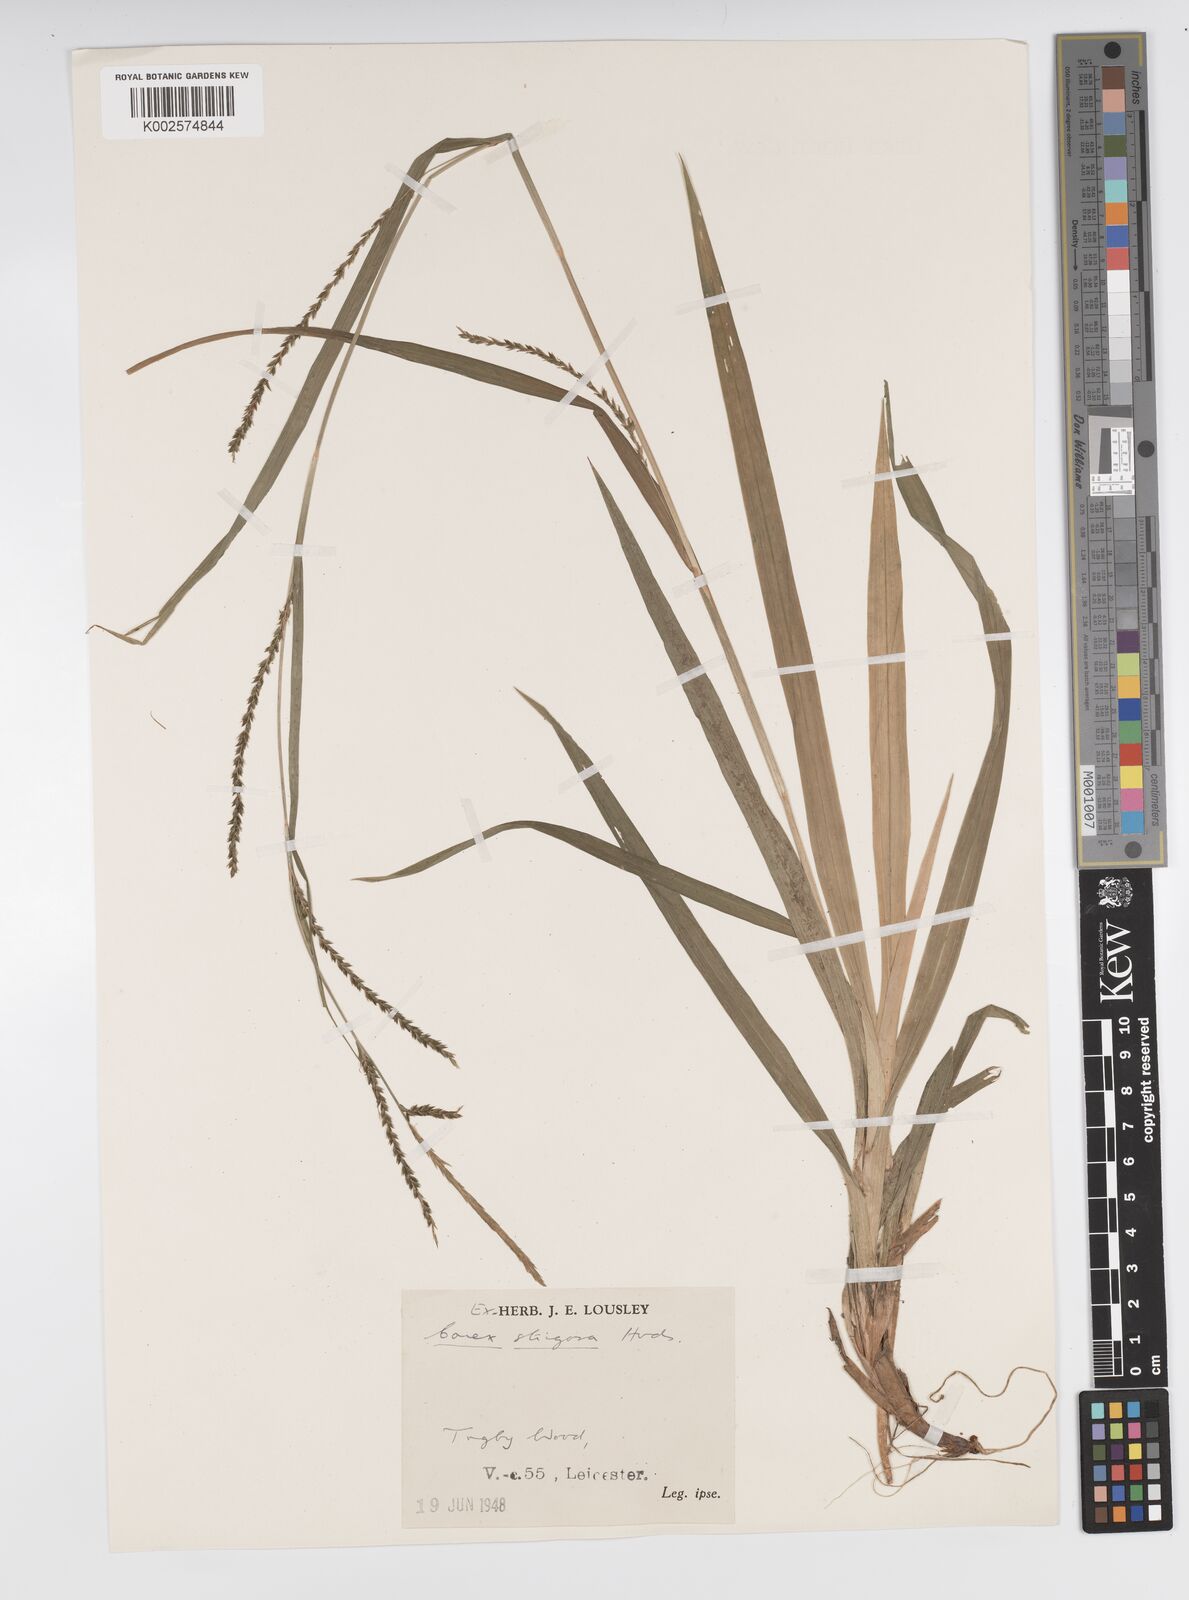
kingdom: Plantae
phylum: Tracheophyta
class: Liliopsida
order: Poales
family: Cyperaceae
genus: Carex
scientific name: Carex strigosa
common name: Thin-spiked wood-sedge
